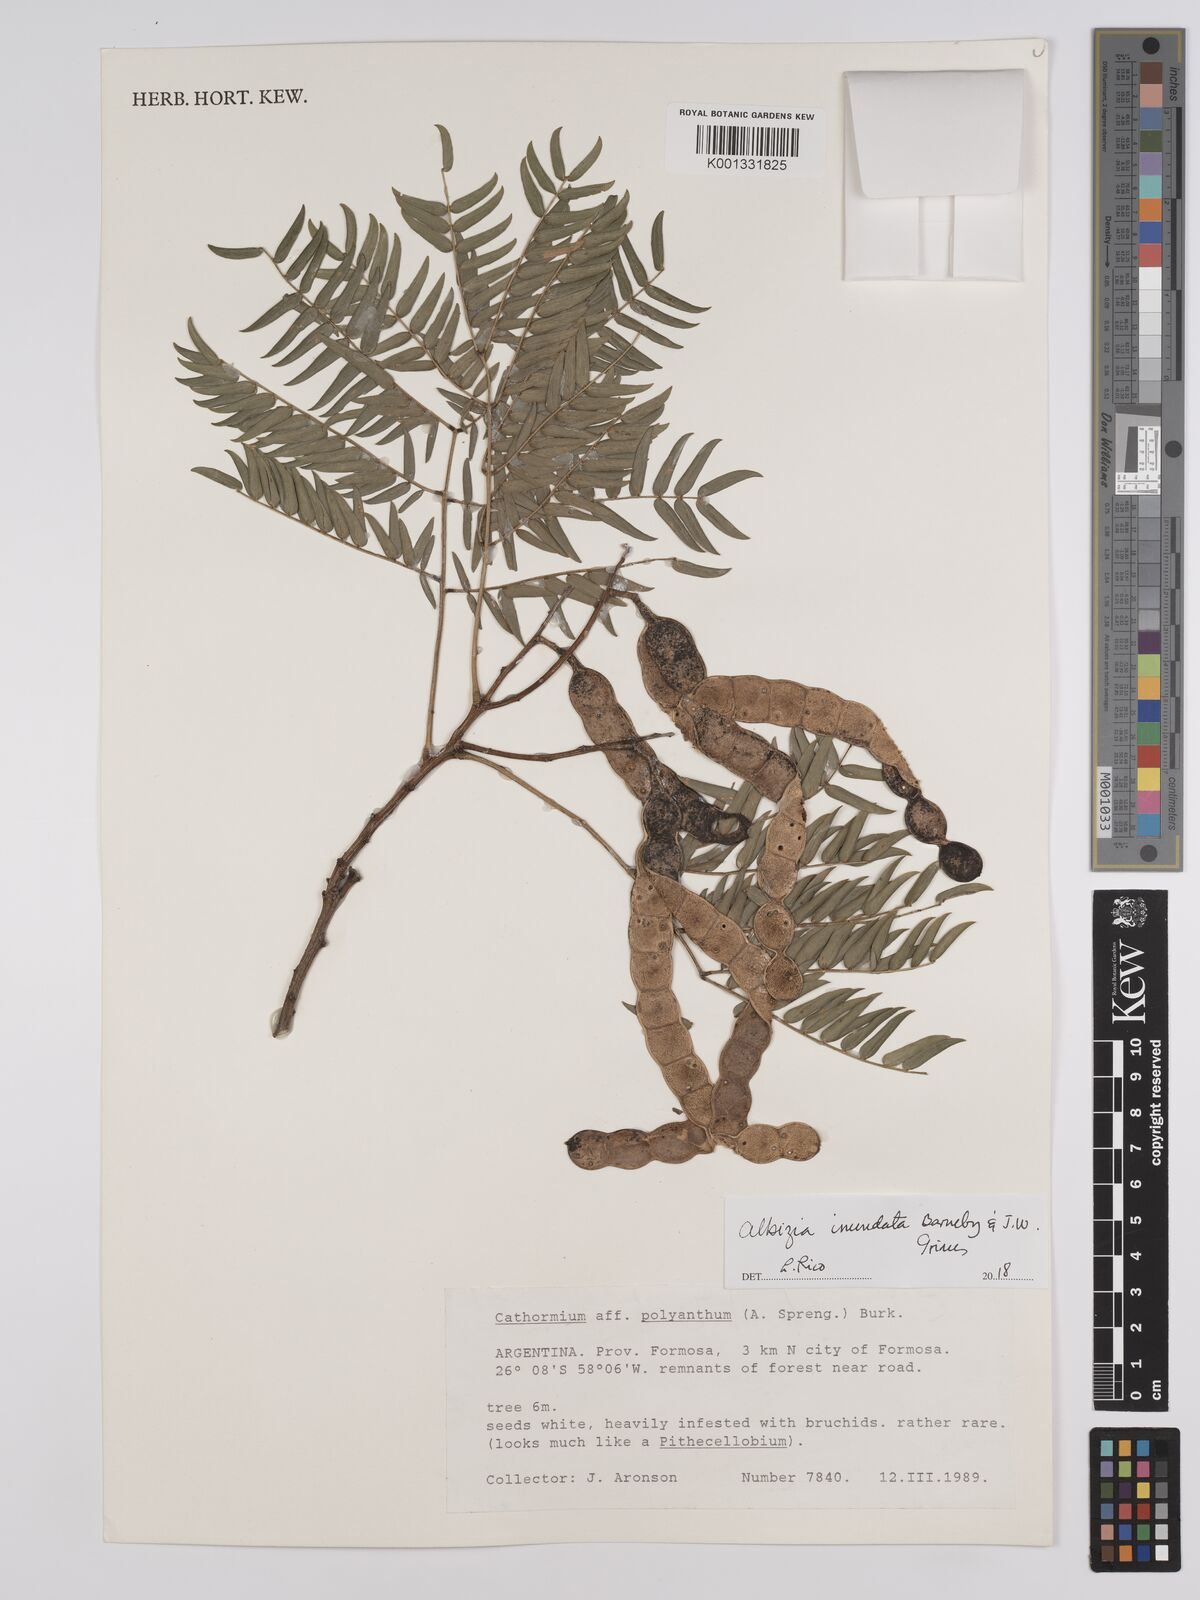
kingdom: Plantae
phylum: Tracheophyta
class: Magnoliopsida
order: Fabales
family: Fabaceae
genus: Albizia
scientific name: Albizia inundata
